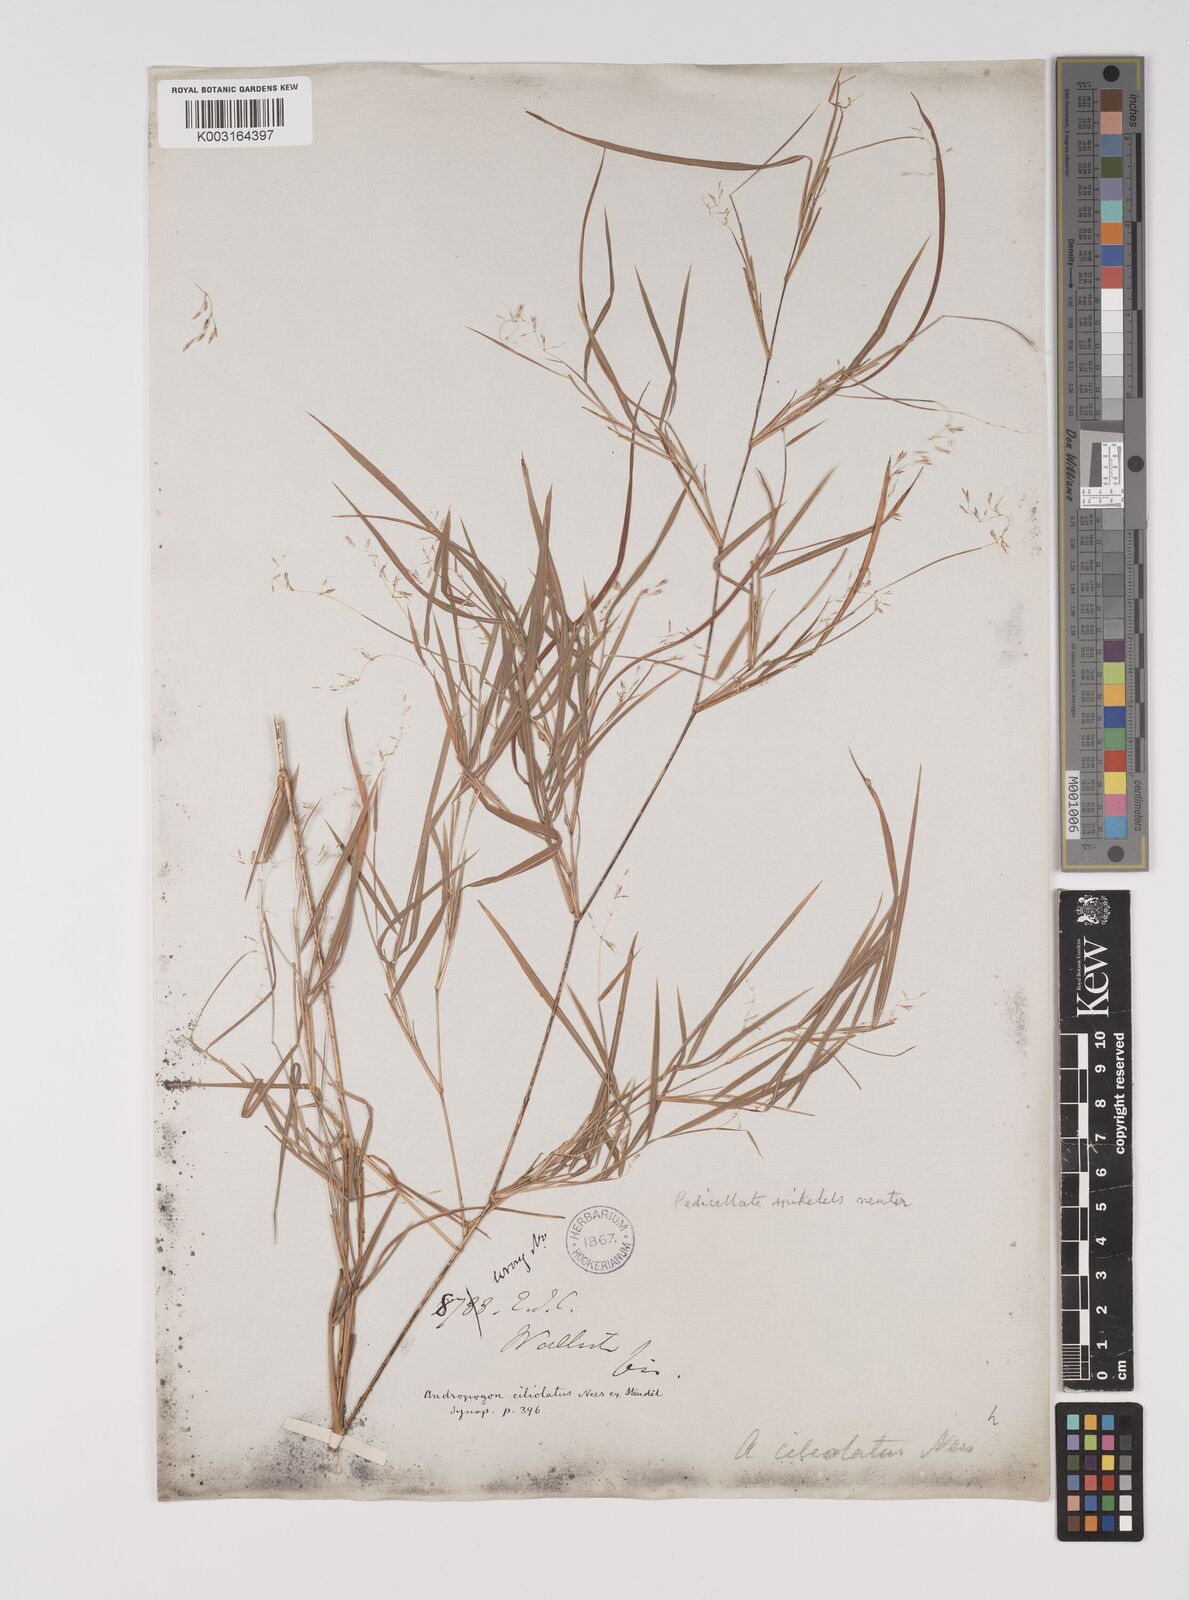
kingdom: Plantae
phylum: Tracheophyta
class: Liliopsida
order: Poales
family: Poaceae
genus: Capillipedium
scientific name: Capillipedium assimile
